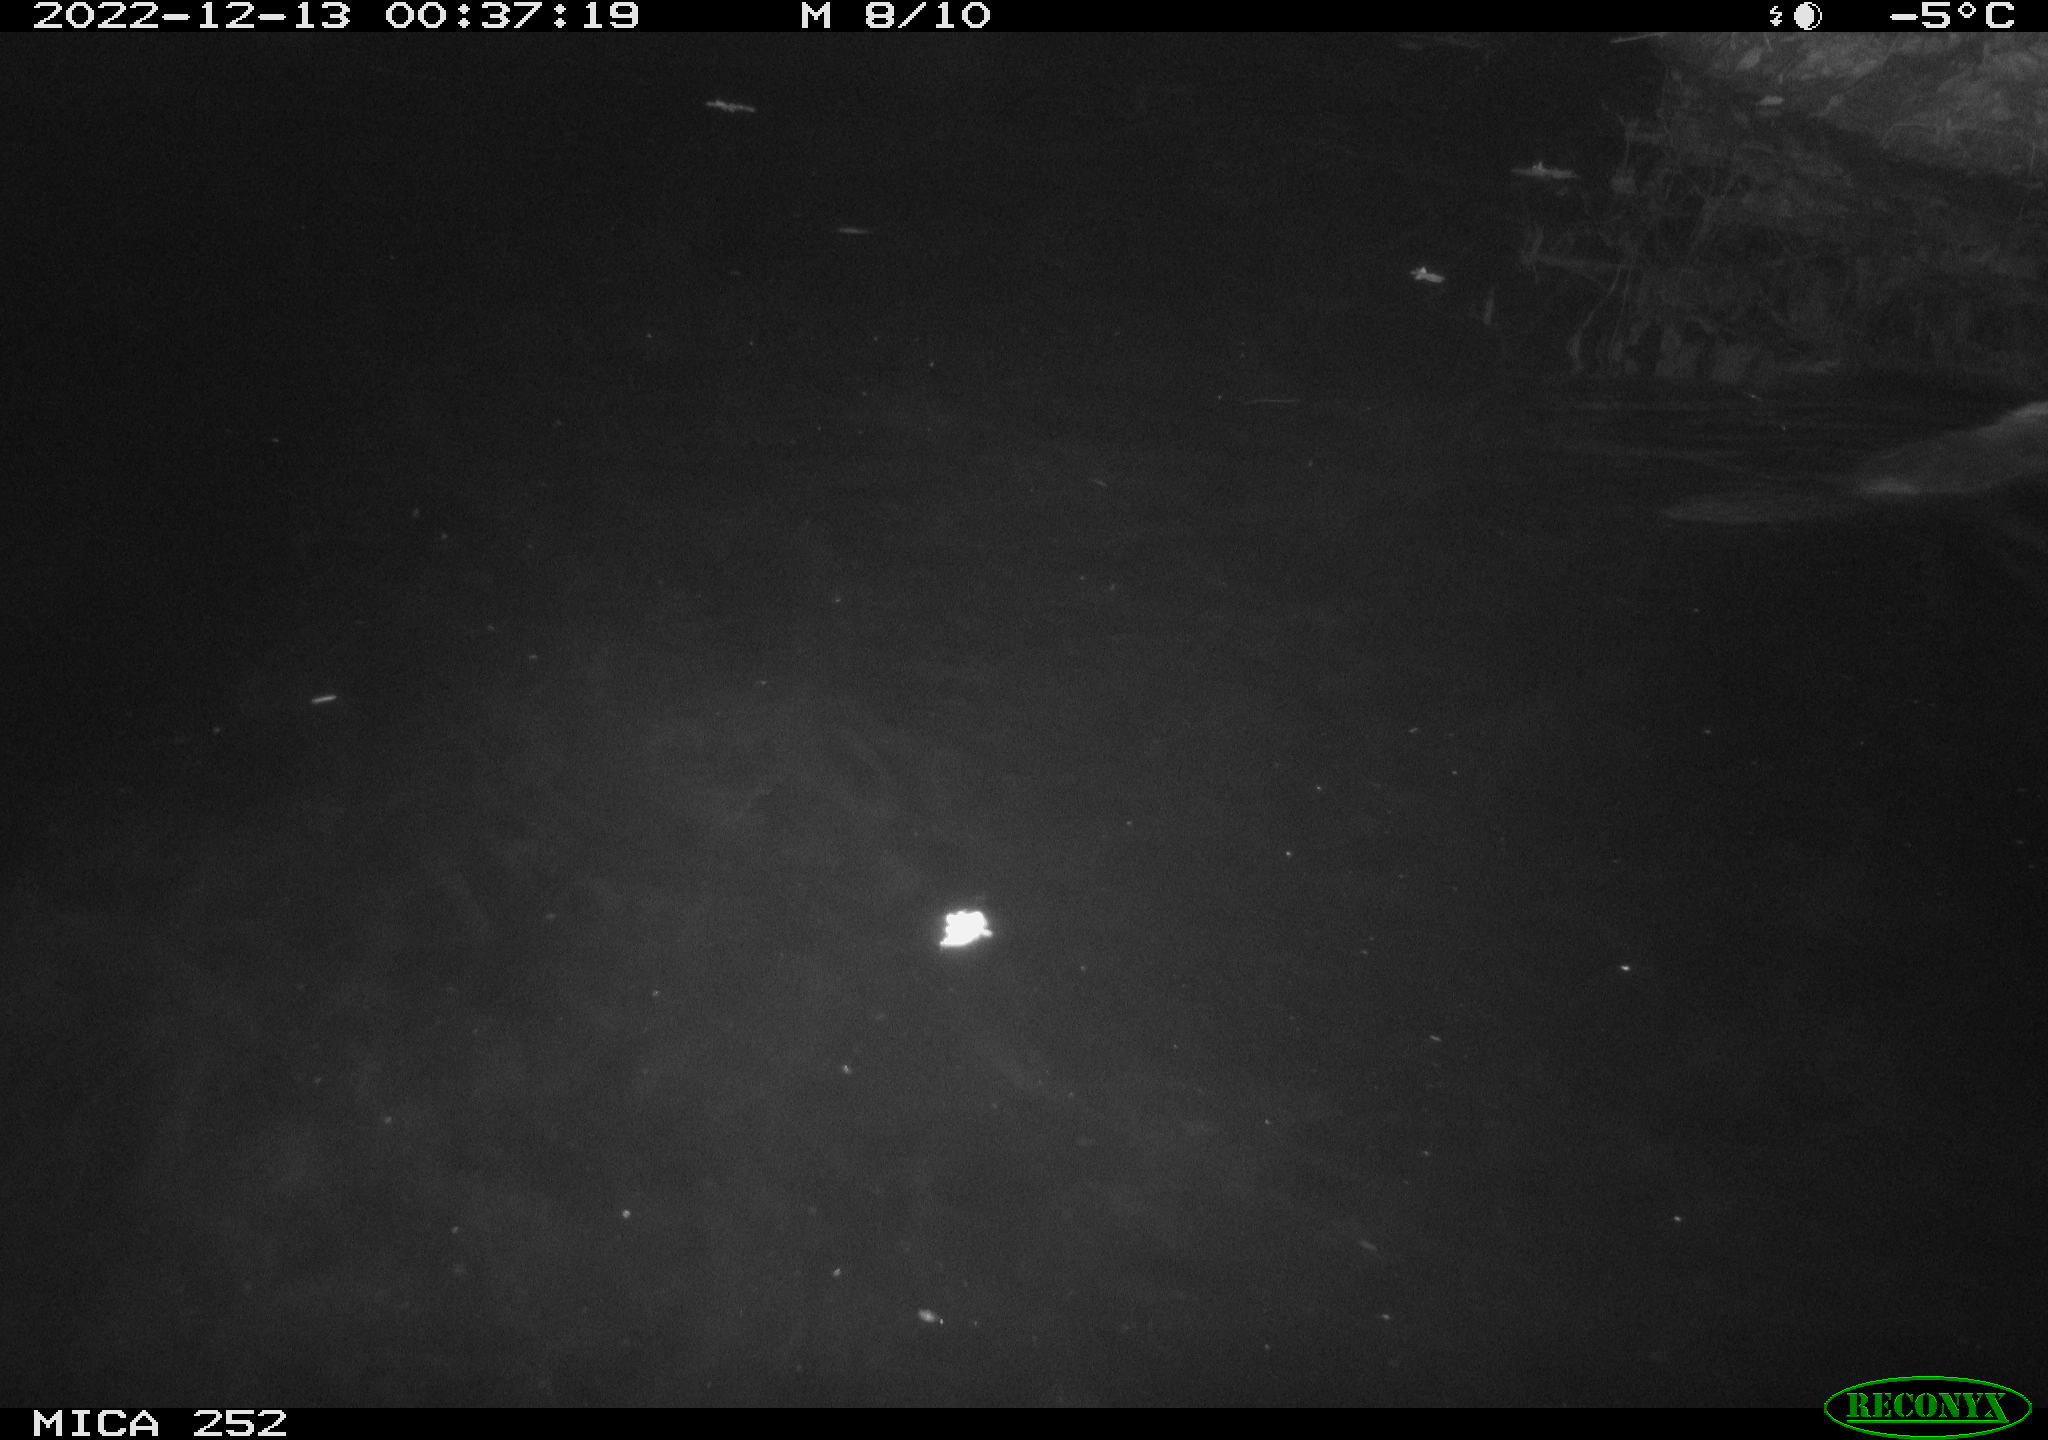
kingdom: Animalia
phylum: Chordata
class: Mammalia
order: Rodentia
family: Castoridae
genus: Castor
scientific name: Castor fiber
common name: Eurasian beaver
